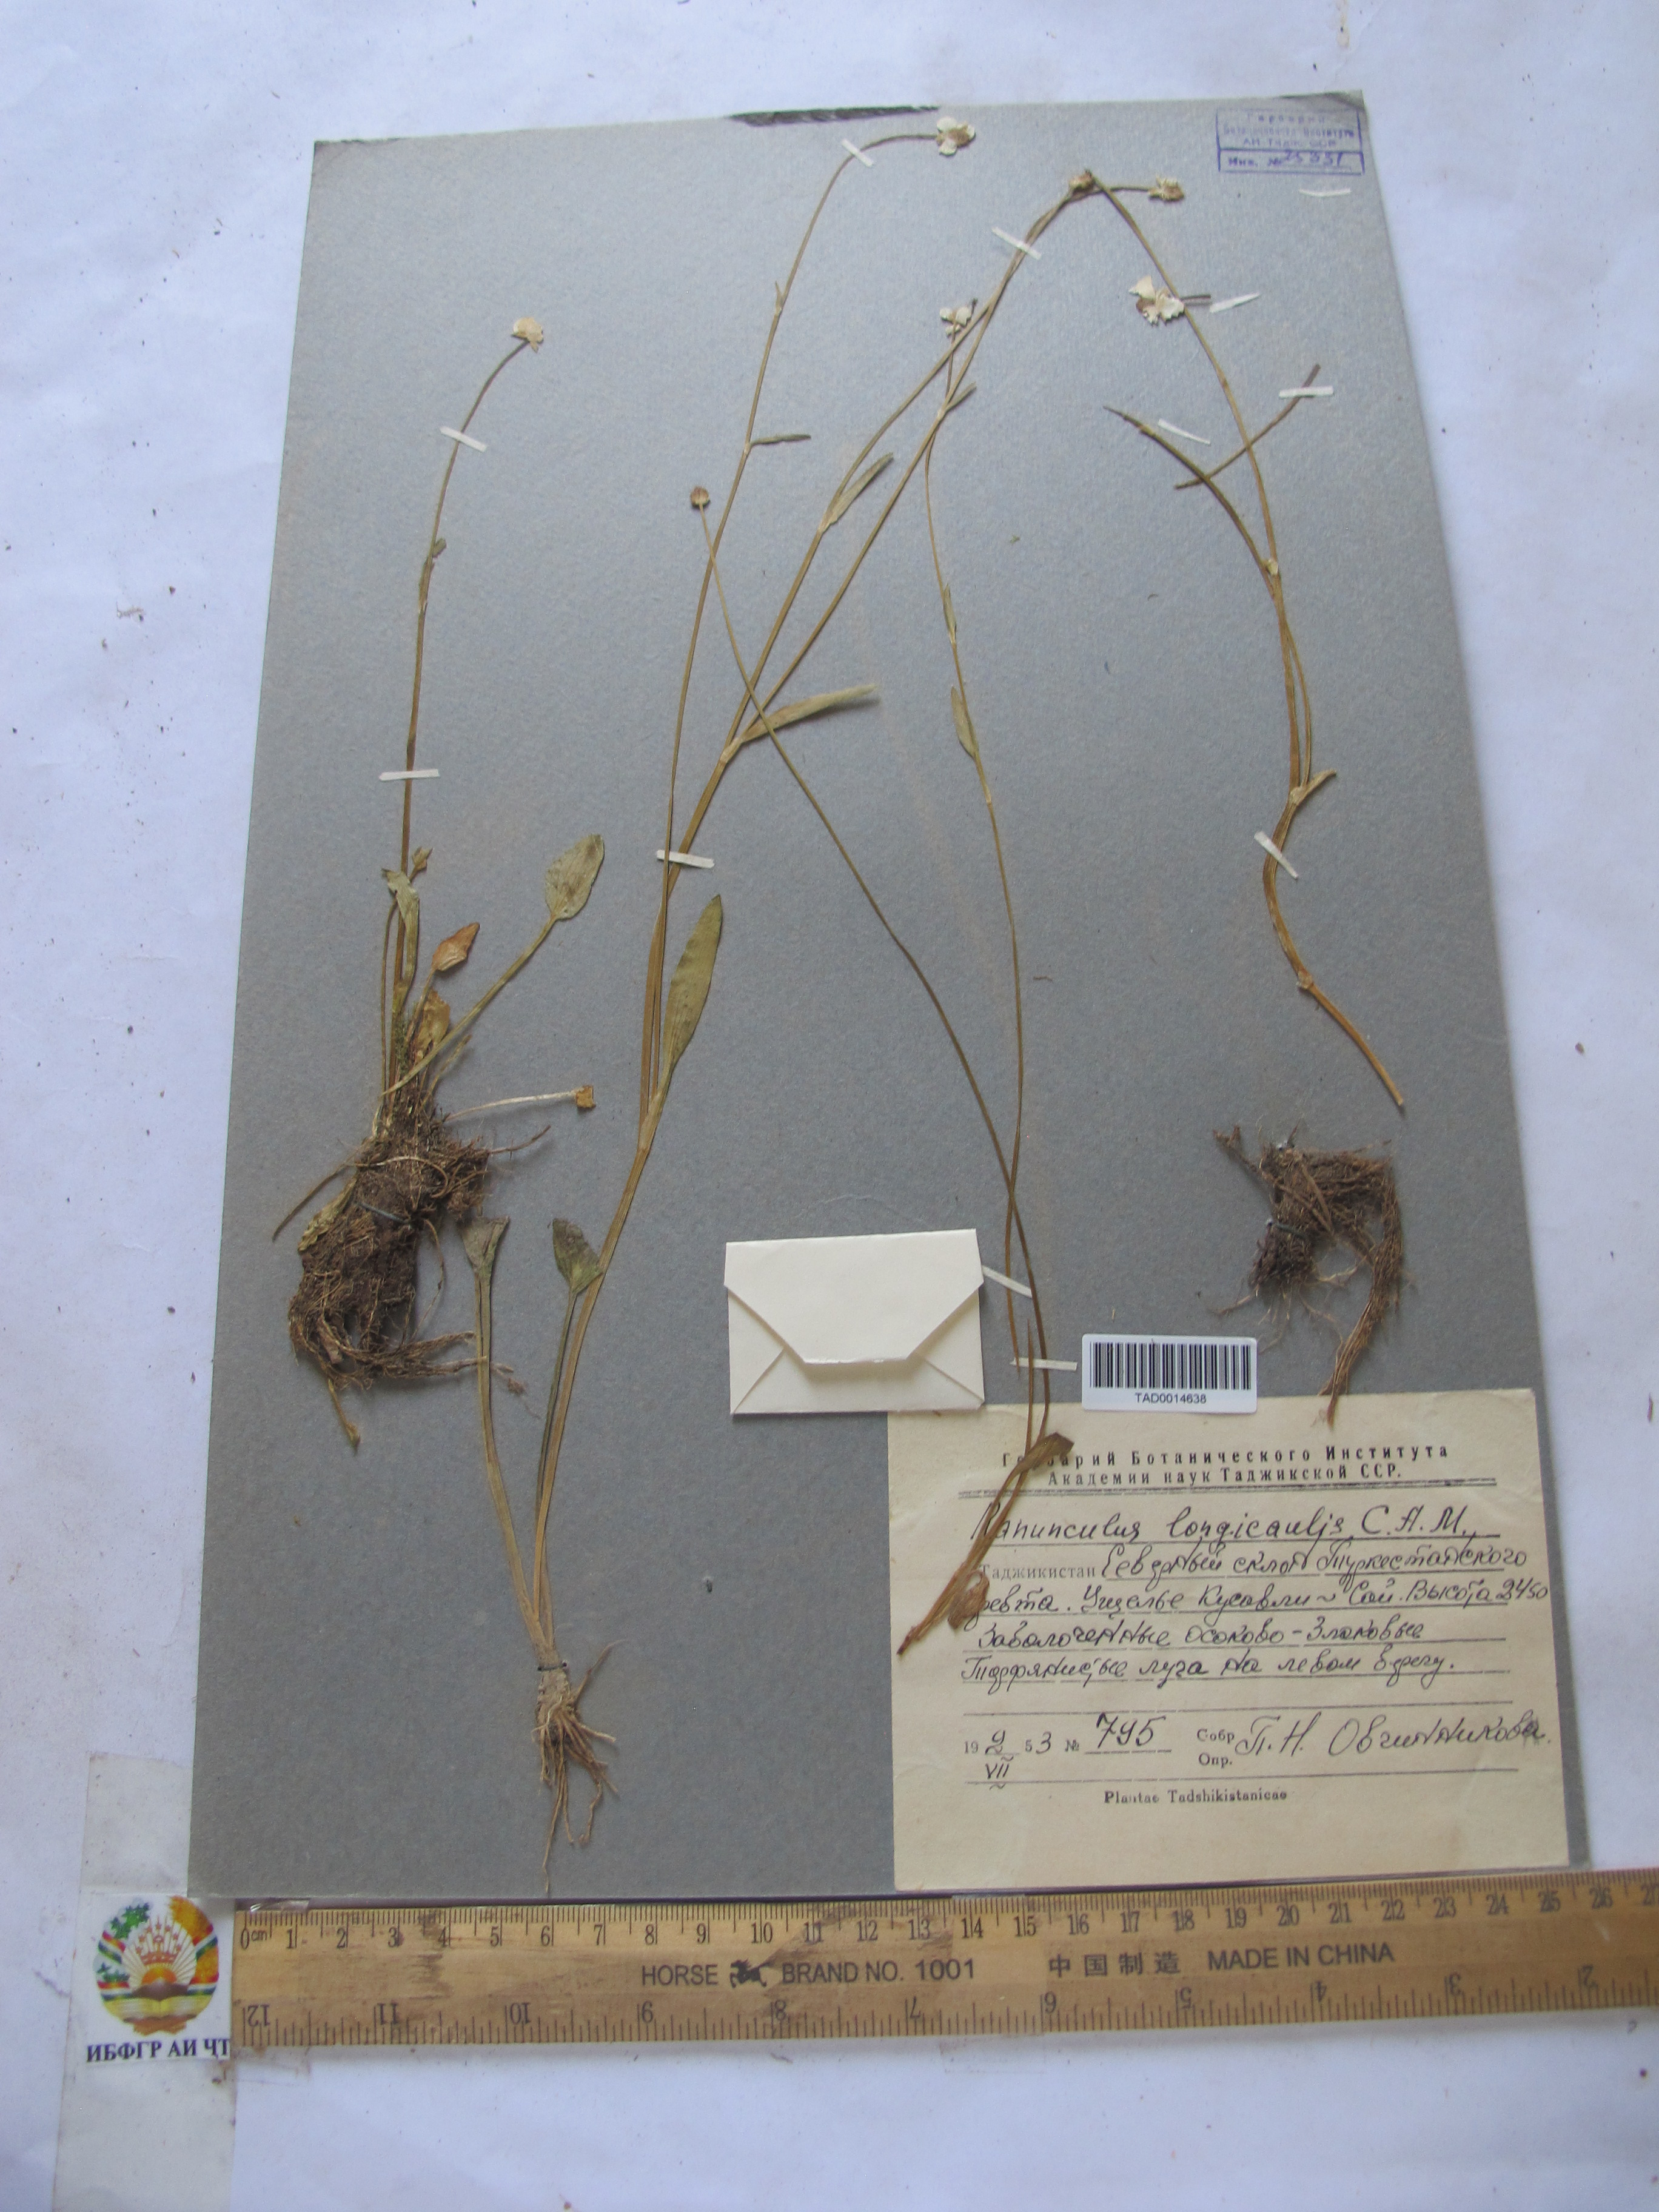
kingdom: Plantae
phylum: Tracheophyta
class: Magnoliopsida
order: Ranunculales
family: Ranunculaceae
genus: Ranunculus
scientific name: Ranunculus longicaulis
